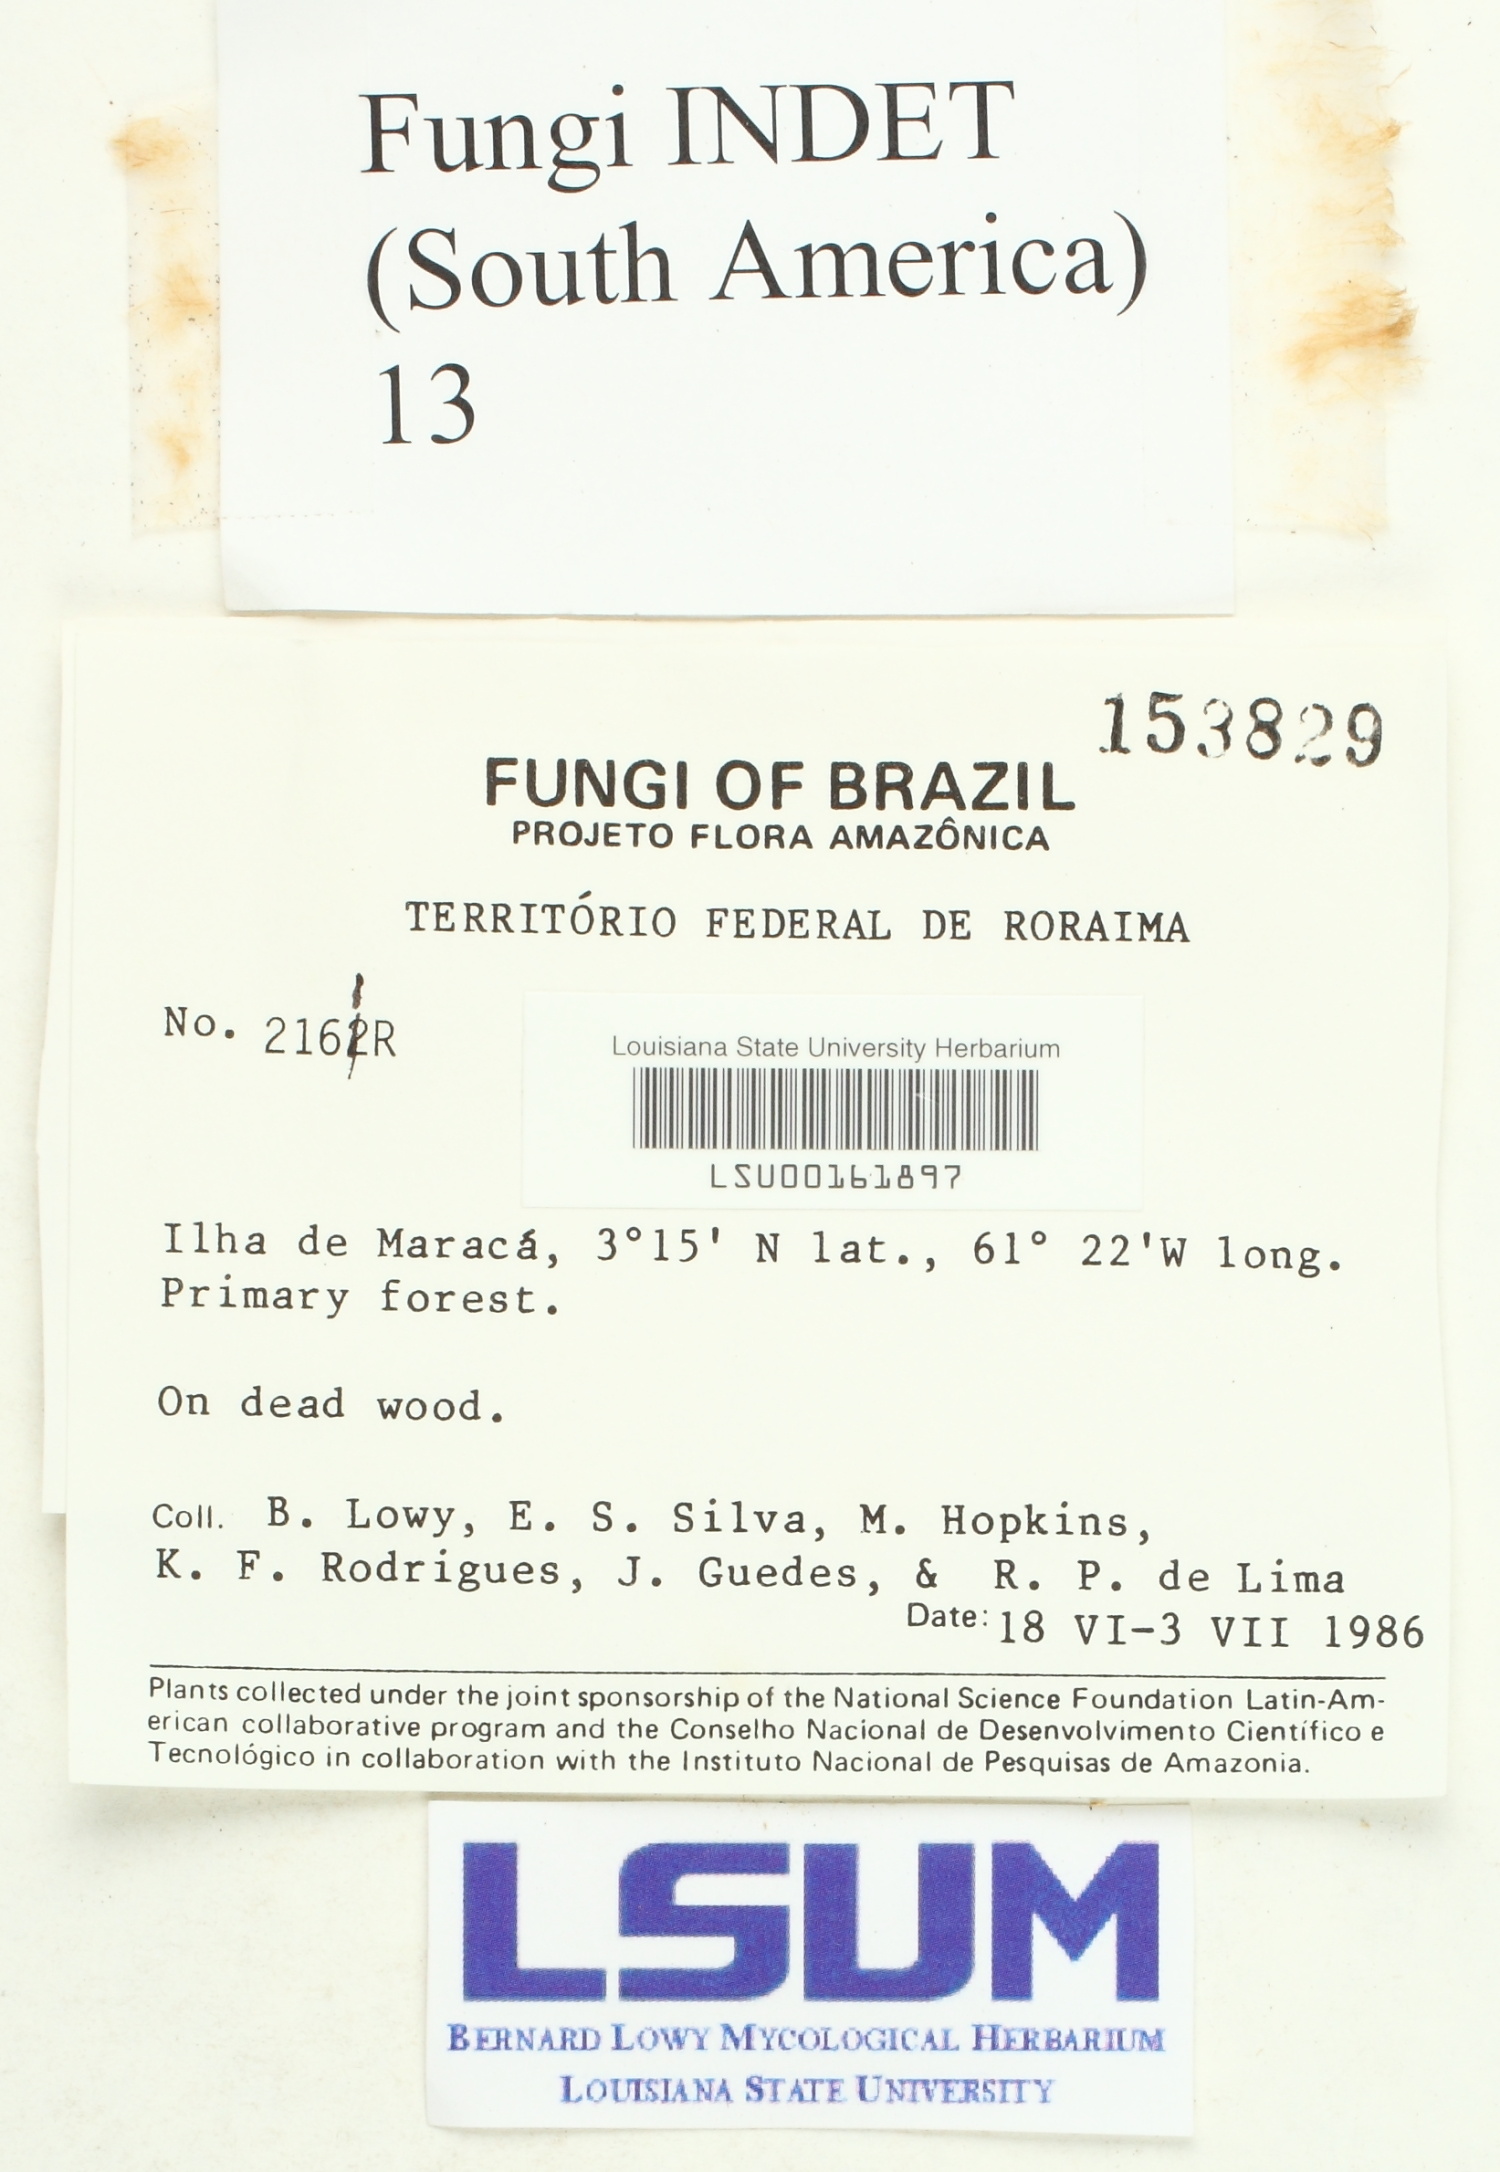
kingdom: Fungi
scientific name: Fungi
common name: Fungi
